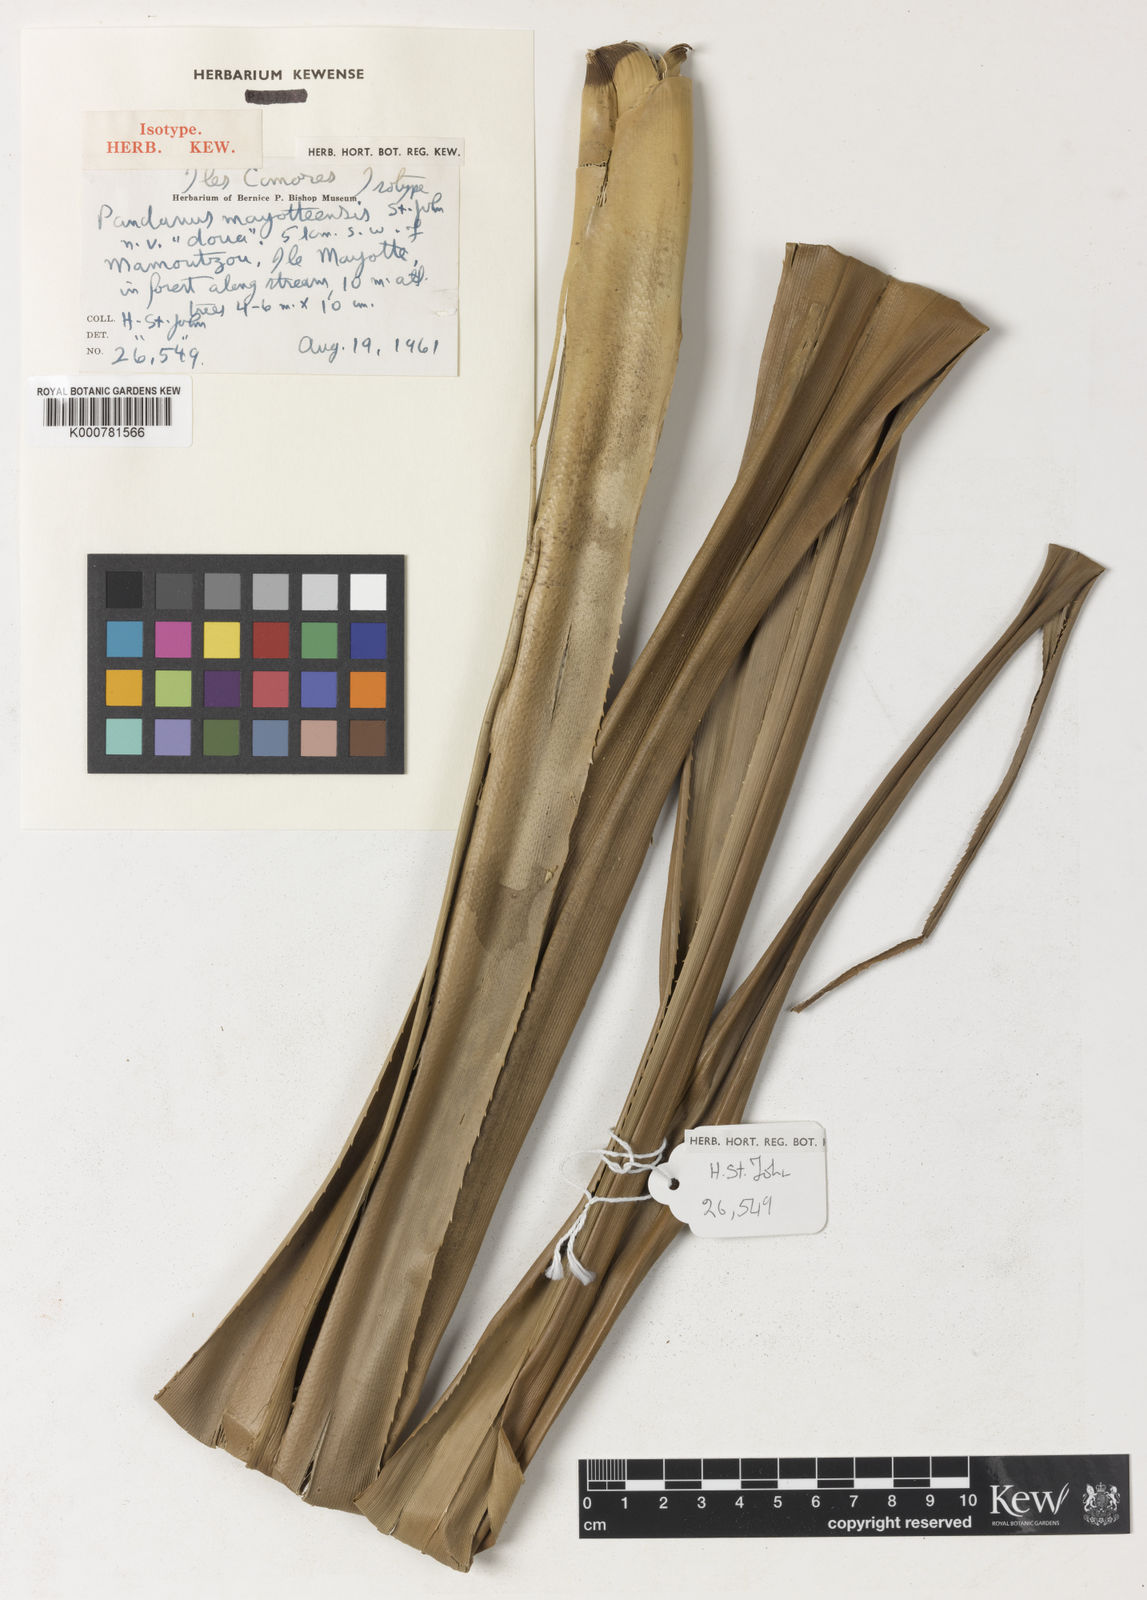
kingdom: Plantae
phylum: Tracheophyta
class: Liliopsida
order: Pandanales
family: Pandanaceae
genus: Pandanus
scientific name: Pandanus mayotteensis
